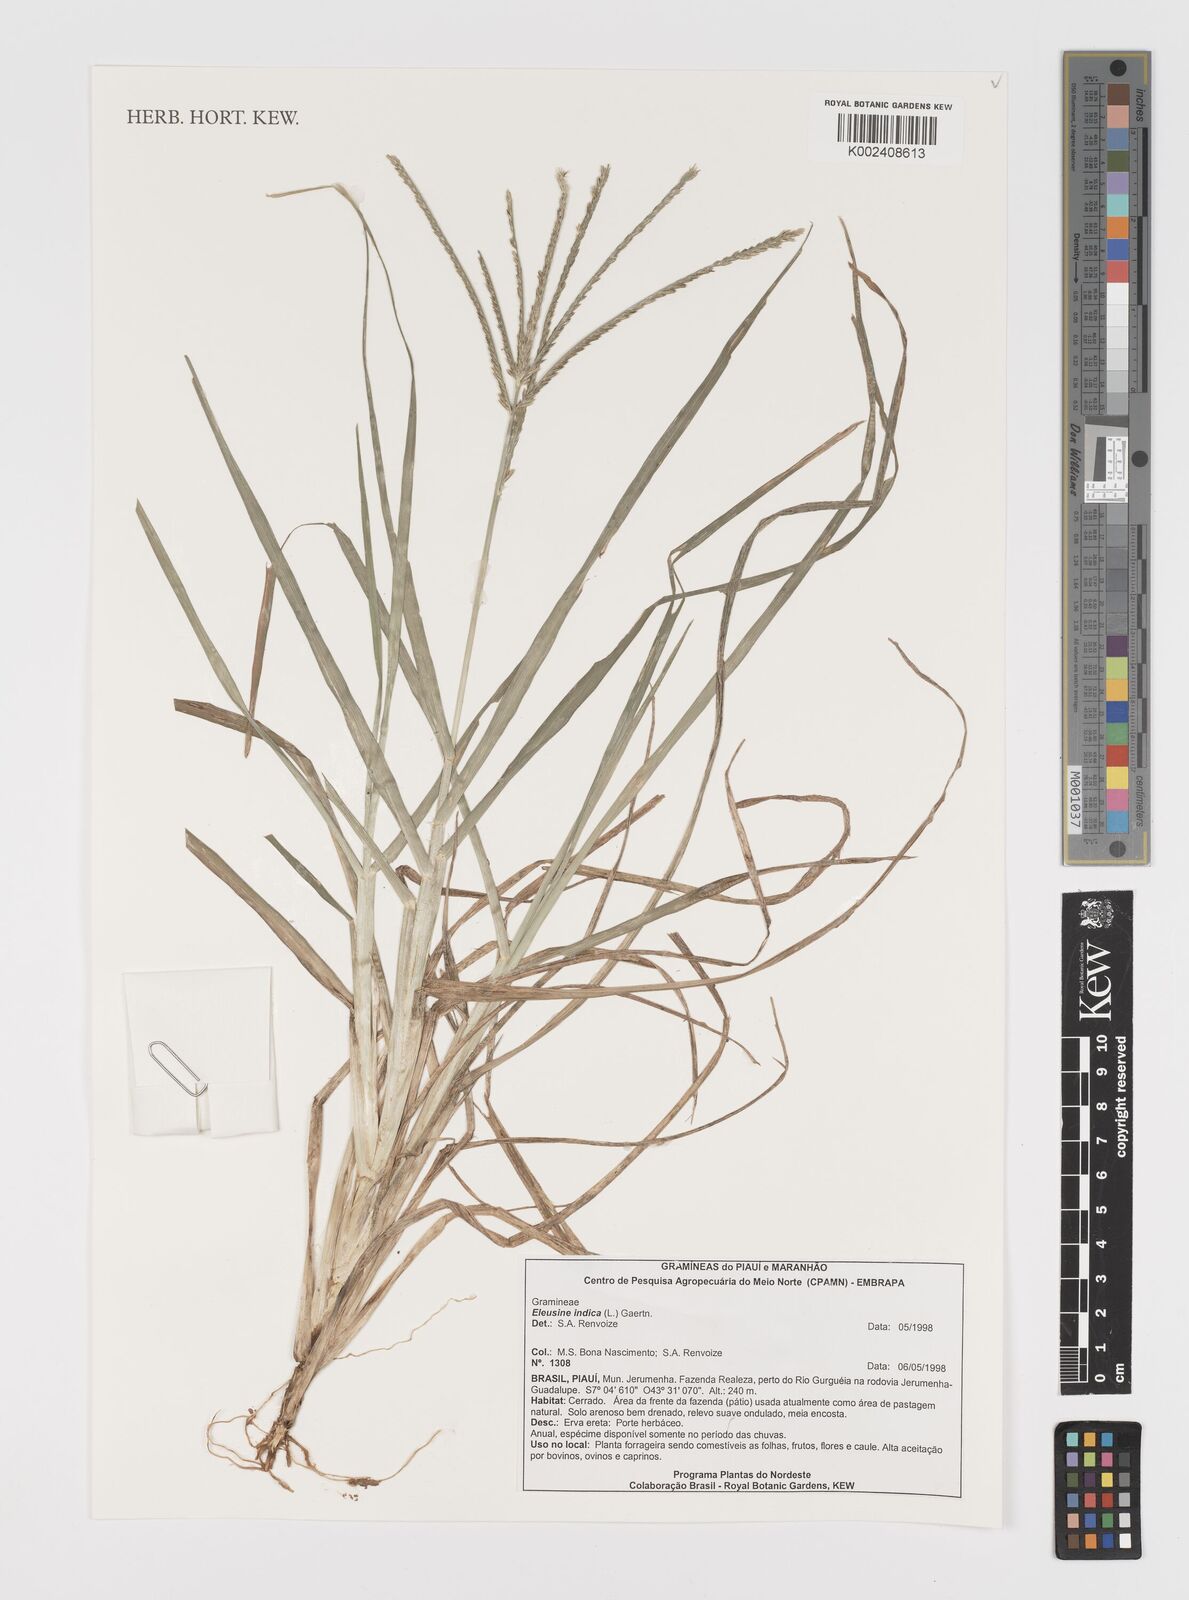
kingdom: Plantae
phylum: Tracheophyta
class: Liliopsida
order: Poales
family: Poaceae
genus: Eleusine
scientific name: Eleusine indica
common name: Yard-grass
